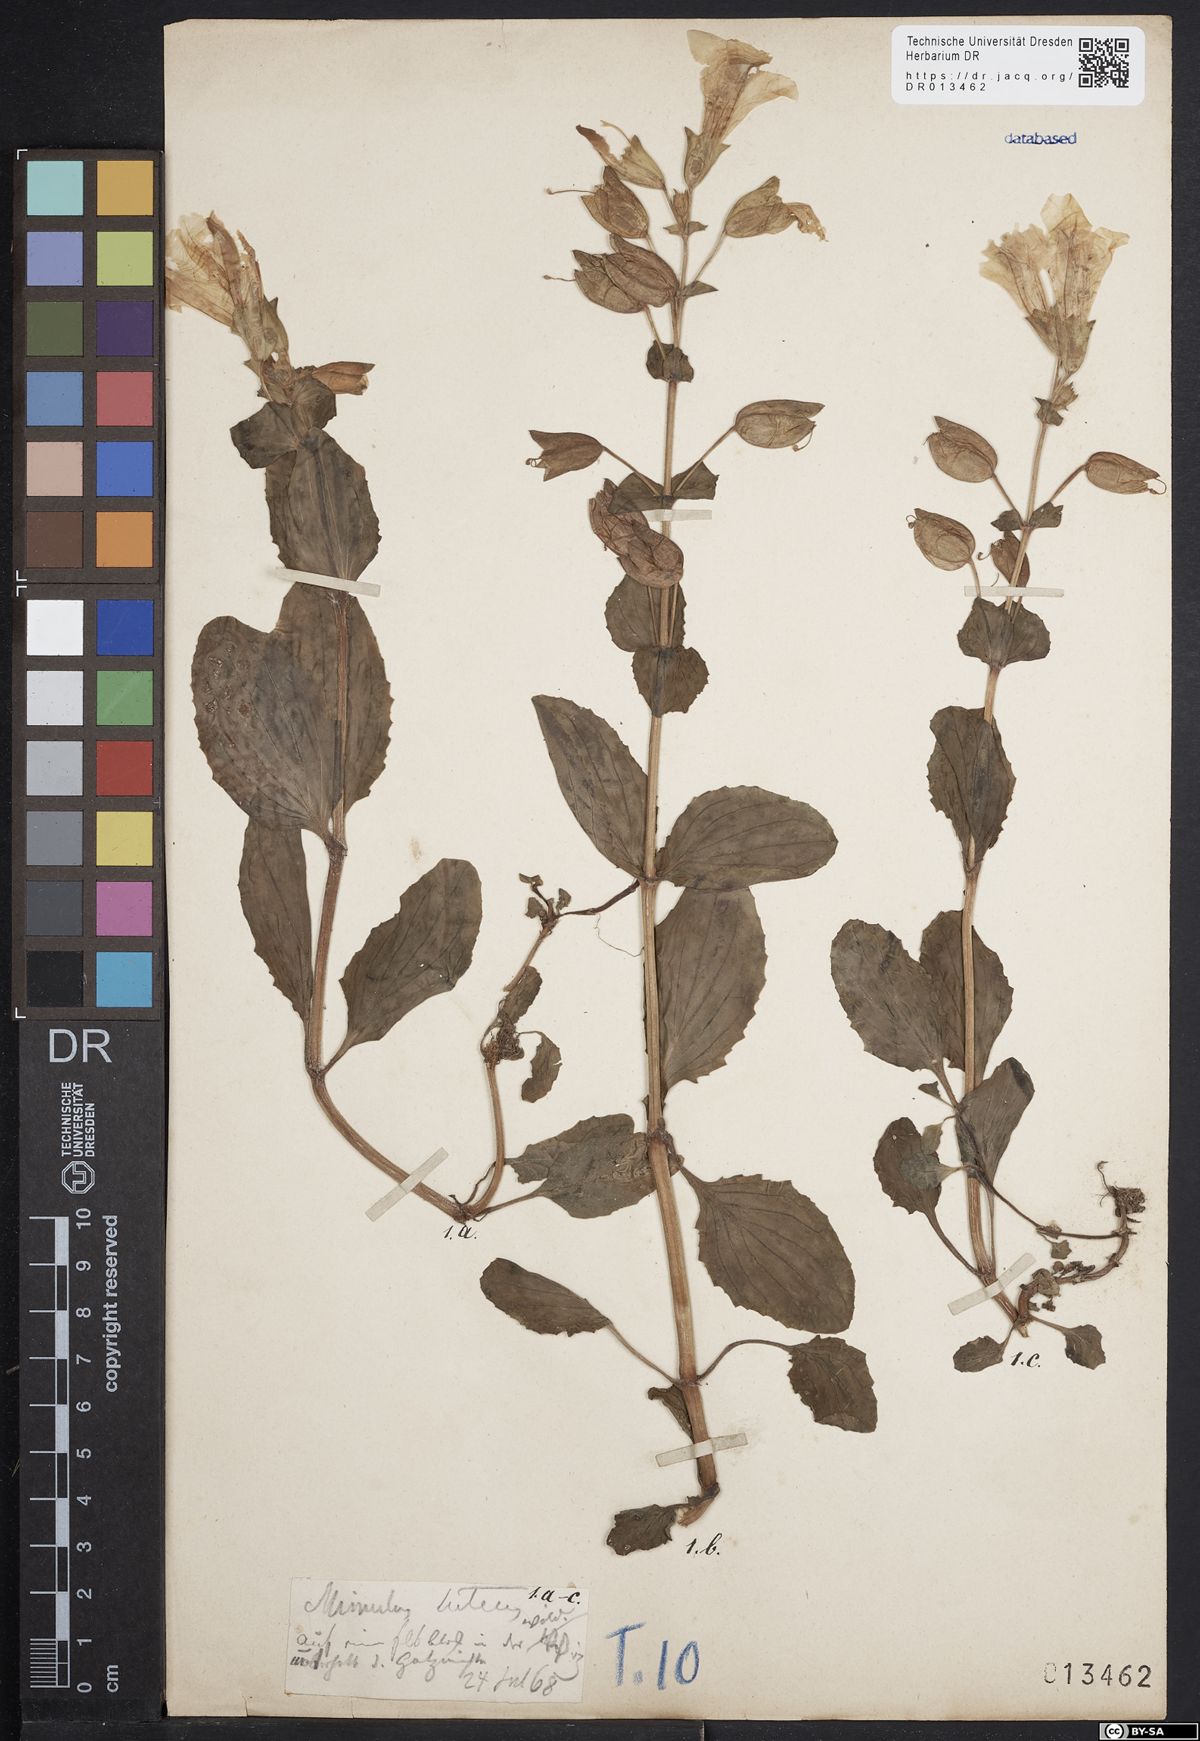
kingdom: Plantae
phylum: Tracheophyta
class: Magnoliopsida
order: Lamiales
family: Phrymaceae
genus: Erythranthe
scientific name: Erythranthe guttata
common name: Monkeyflower
